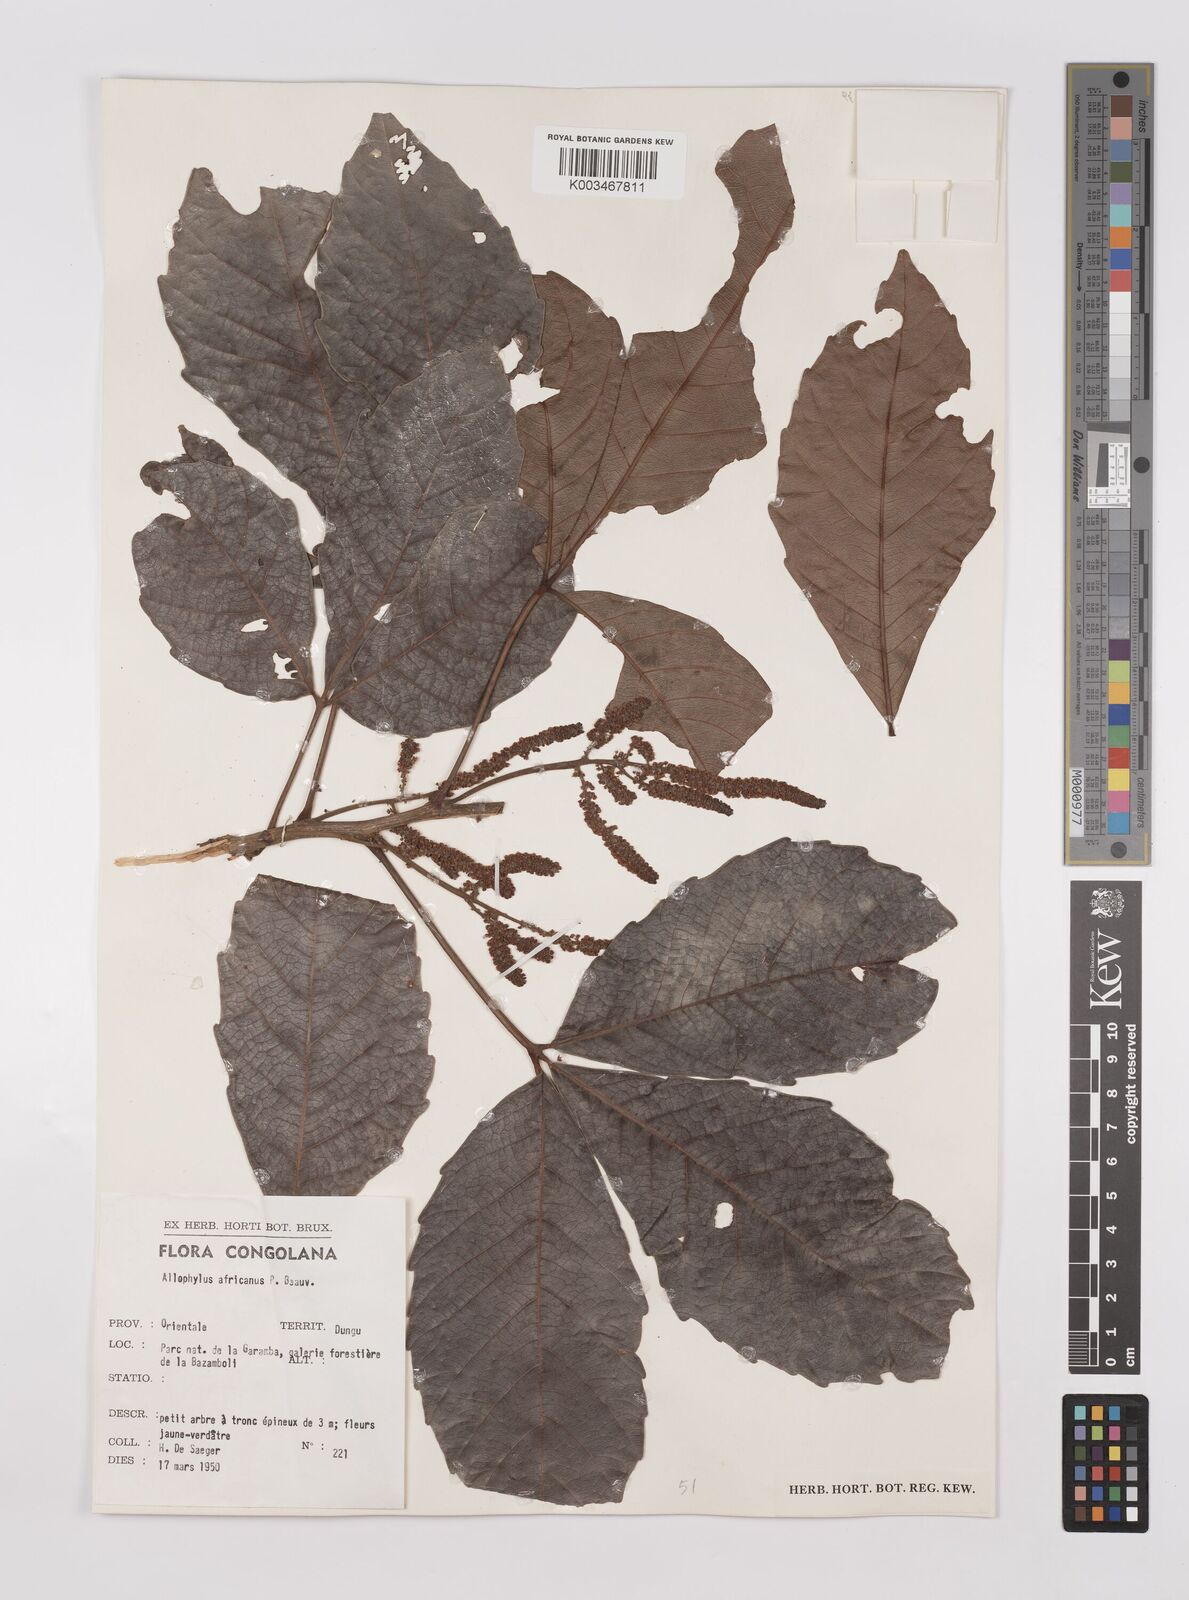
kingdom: Plantae
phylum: Tracheophyta
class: Magnoliopsida
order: Sapindales
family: Sapindaceae
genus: Allophylus
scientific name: Allophylus africanus
